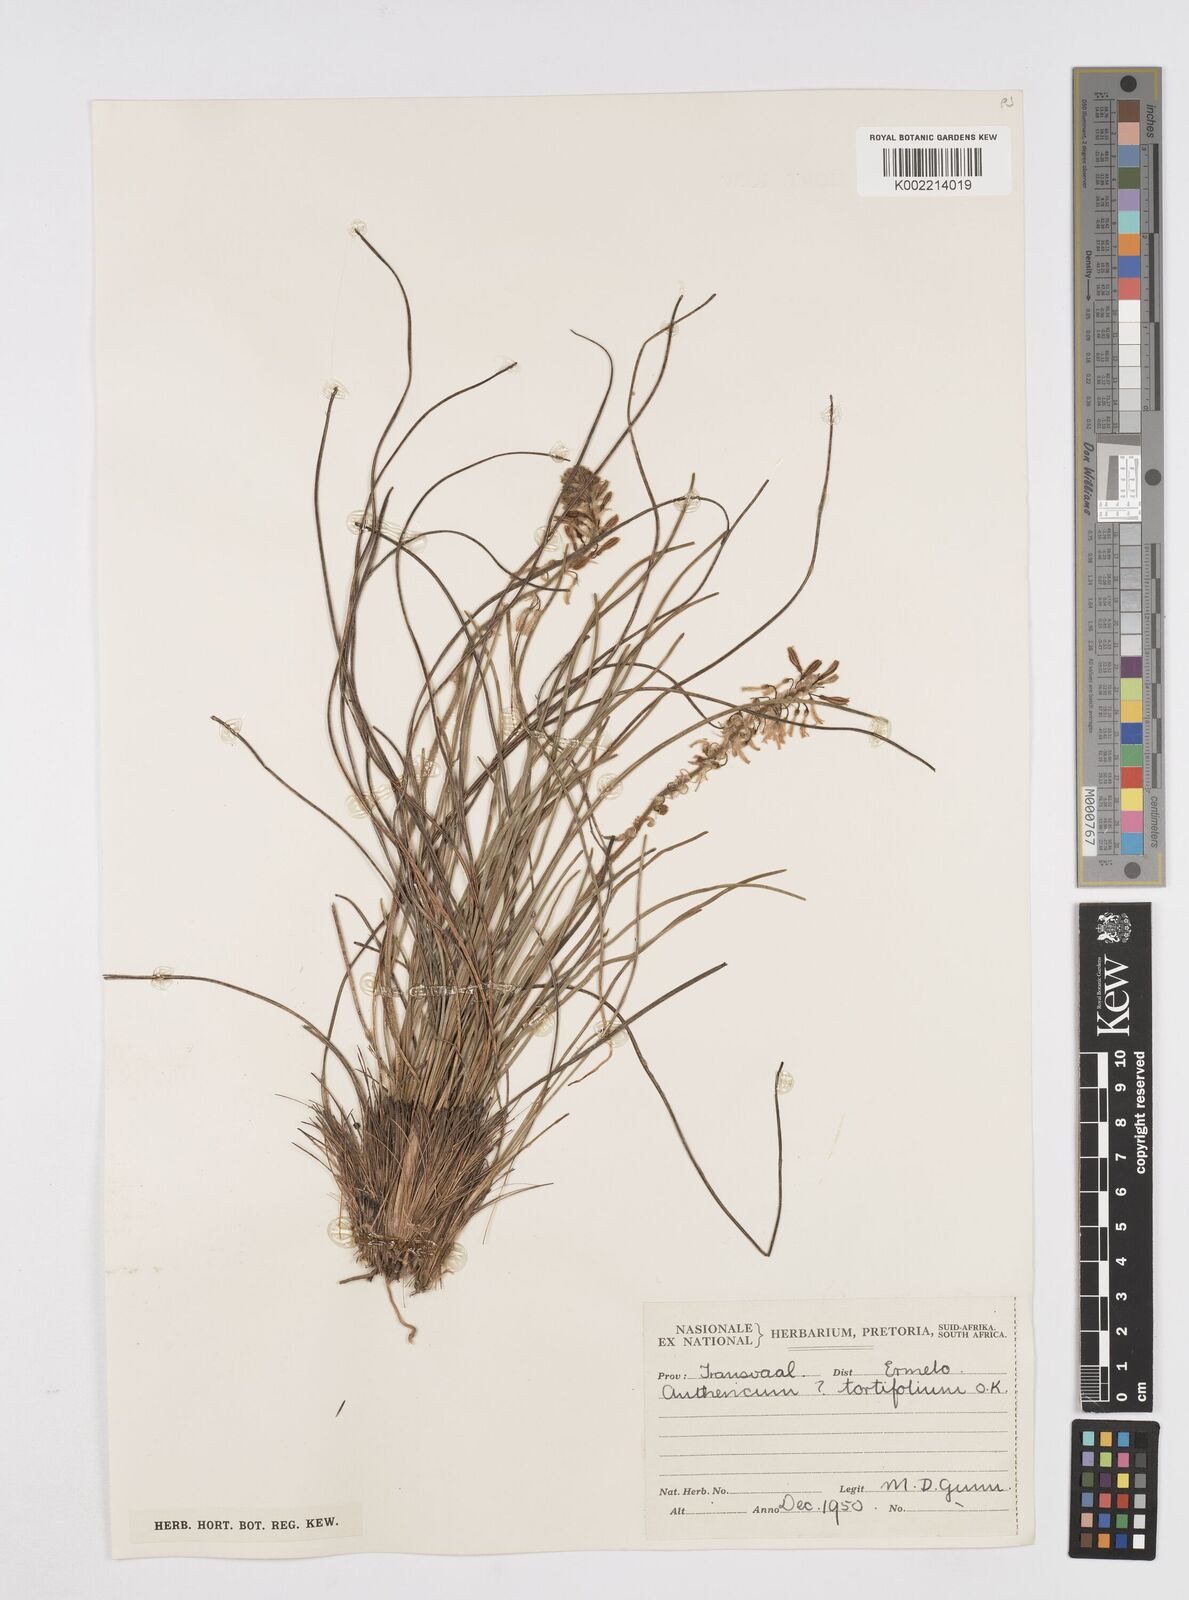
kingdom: Plantae
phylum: Tracheophyta
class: Liliopsida
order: Asparagales
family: Asphodelaceae
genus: Trachyandra
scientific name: Trachyandra gerrardii
